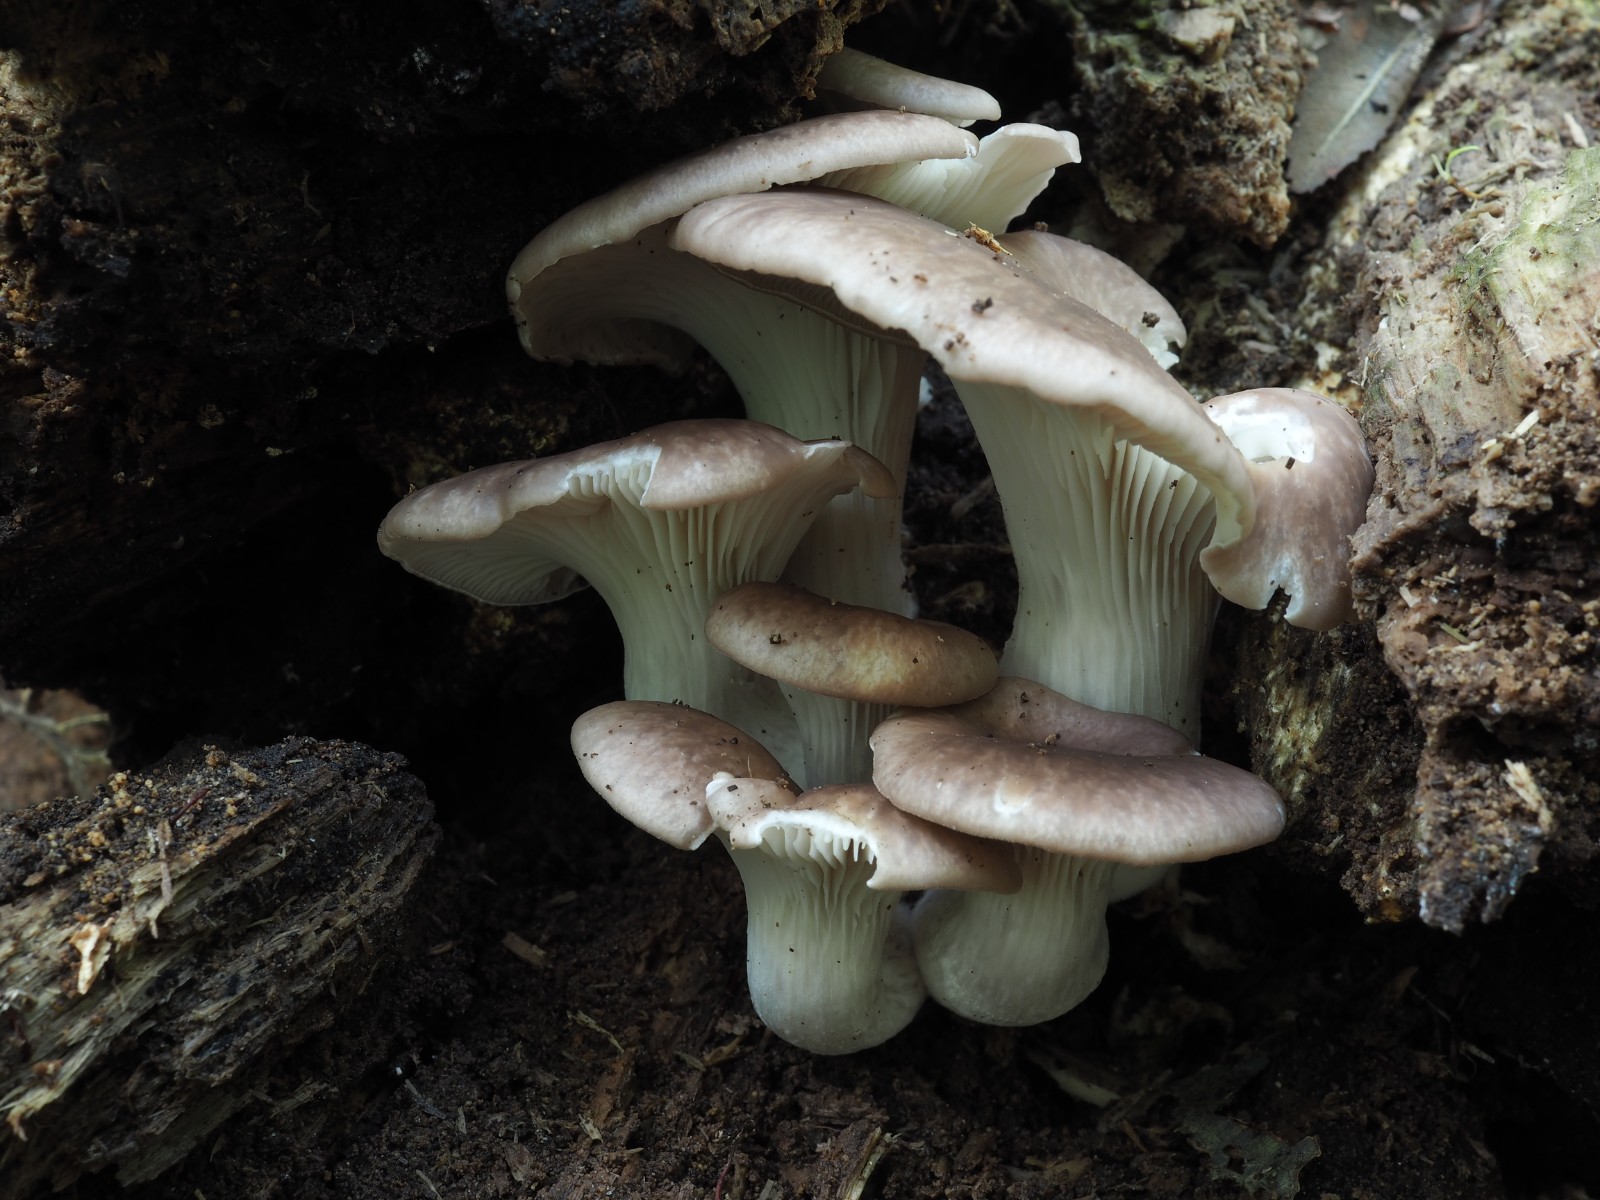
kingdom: Fungi
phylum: Basidiomycota
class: Agaricomycetes
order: Agaricales
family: Pleurotaceae
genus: Pleurotus
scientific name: Pleurotus ostreatus
